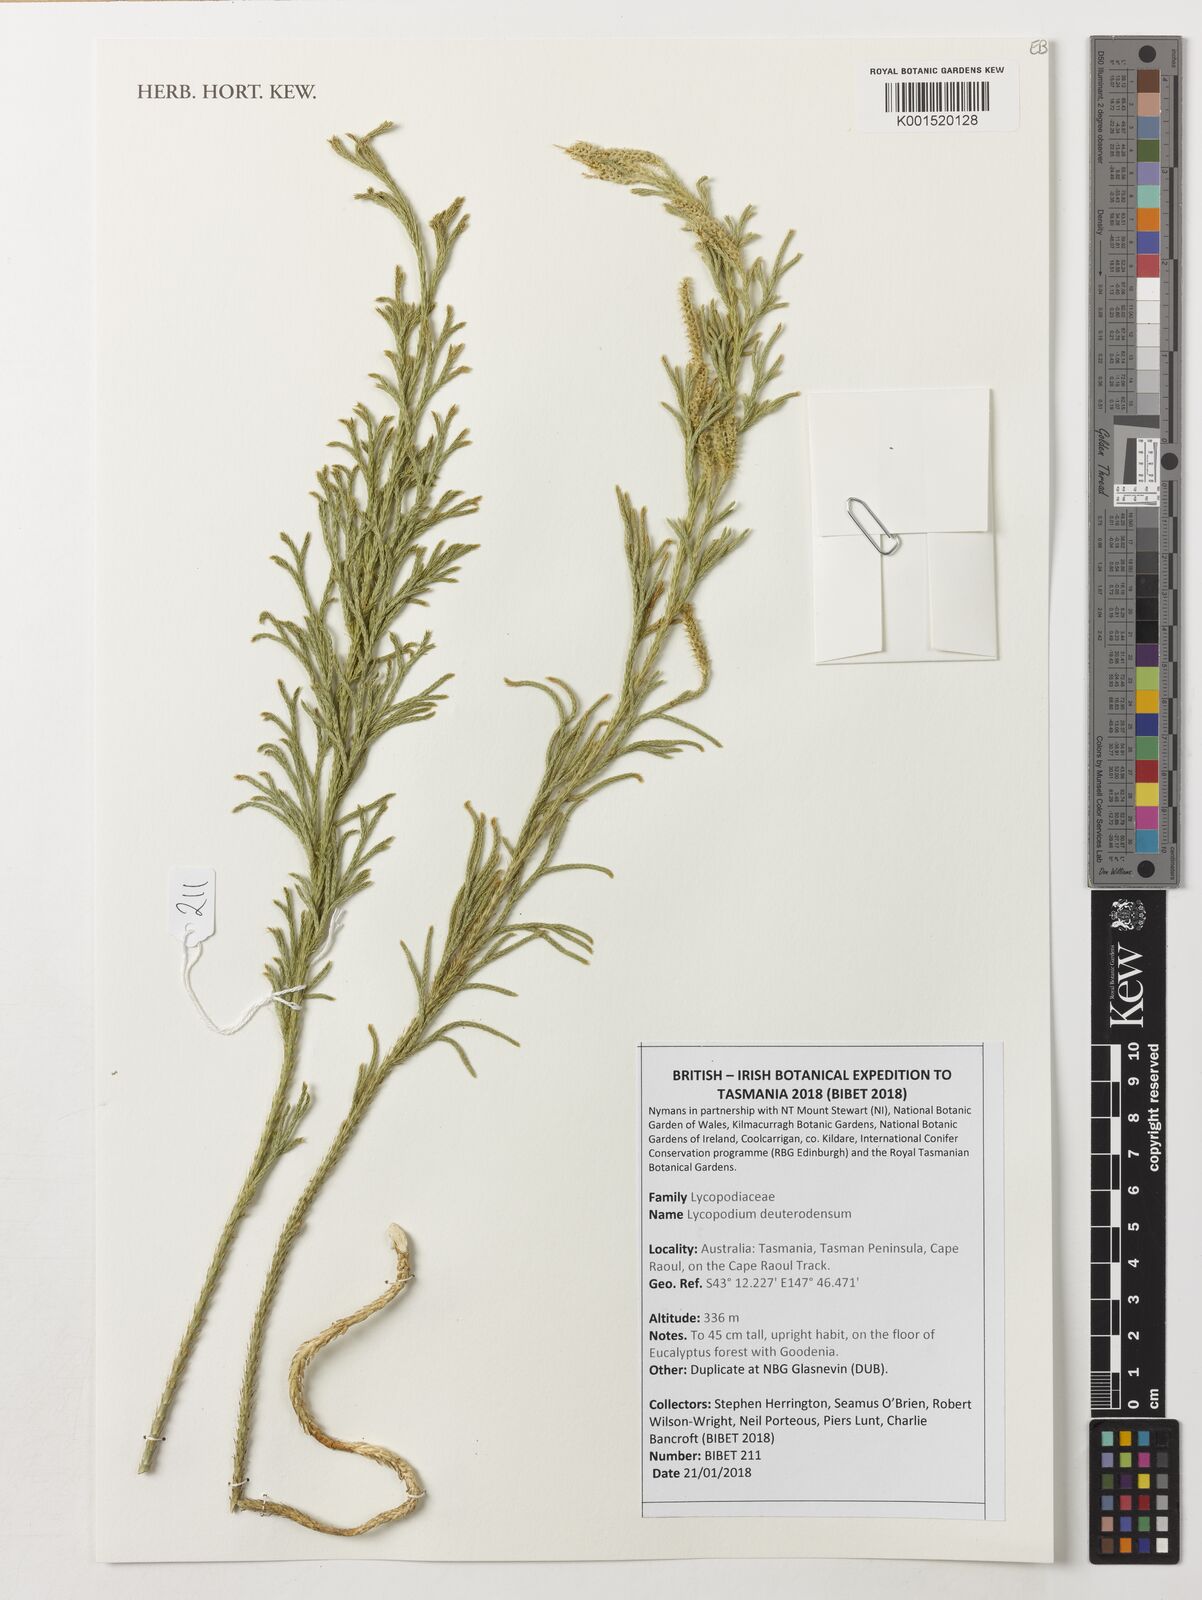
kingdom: Plantae
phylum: Tracheophyta
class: Lycopodiopsida
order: Lycopodiales
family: Lycopodiaceae
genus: Pseudolycopodium
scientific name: Pseudolycopodium densum
